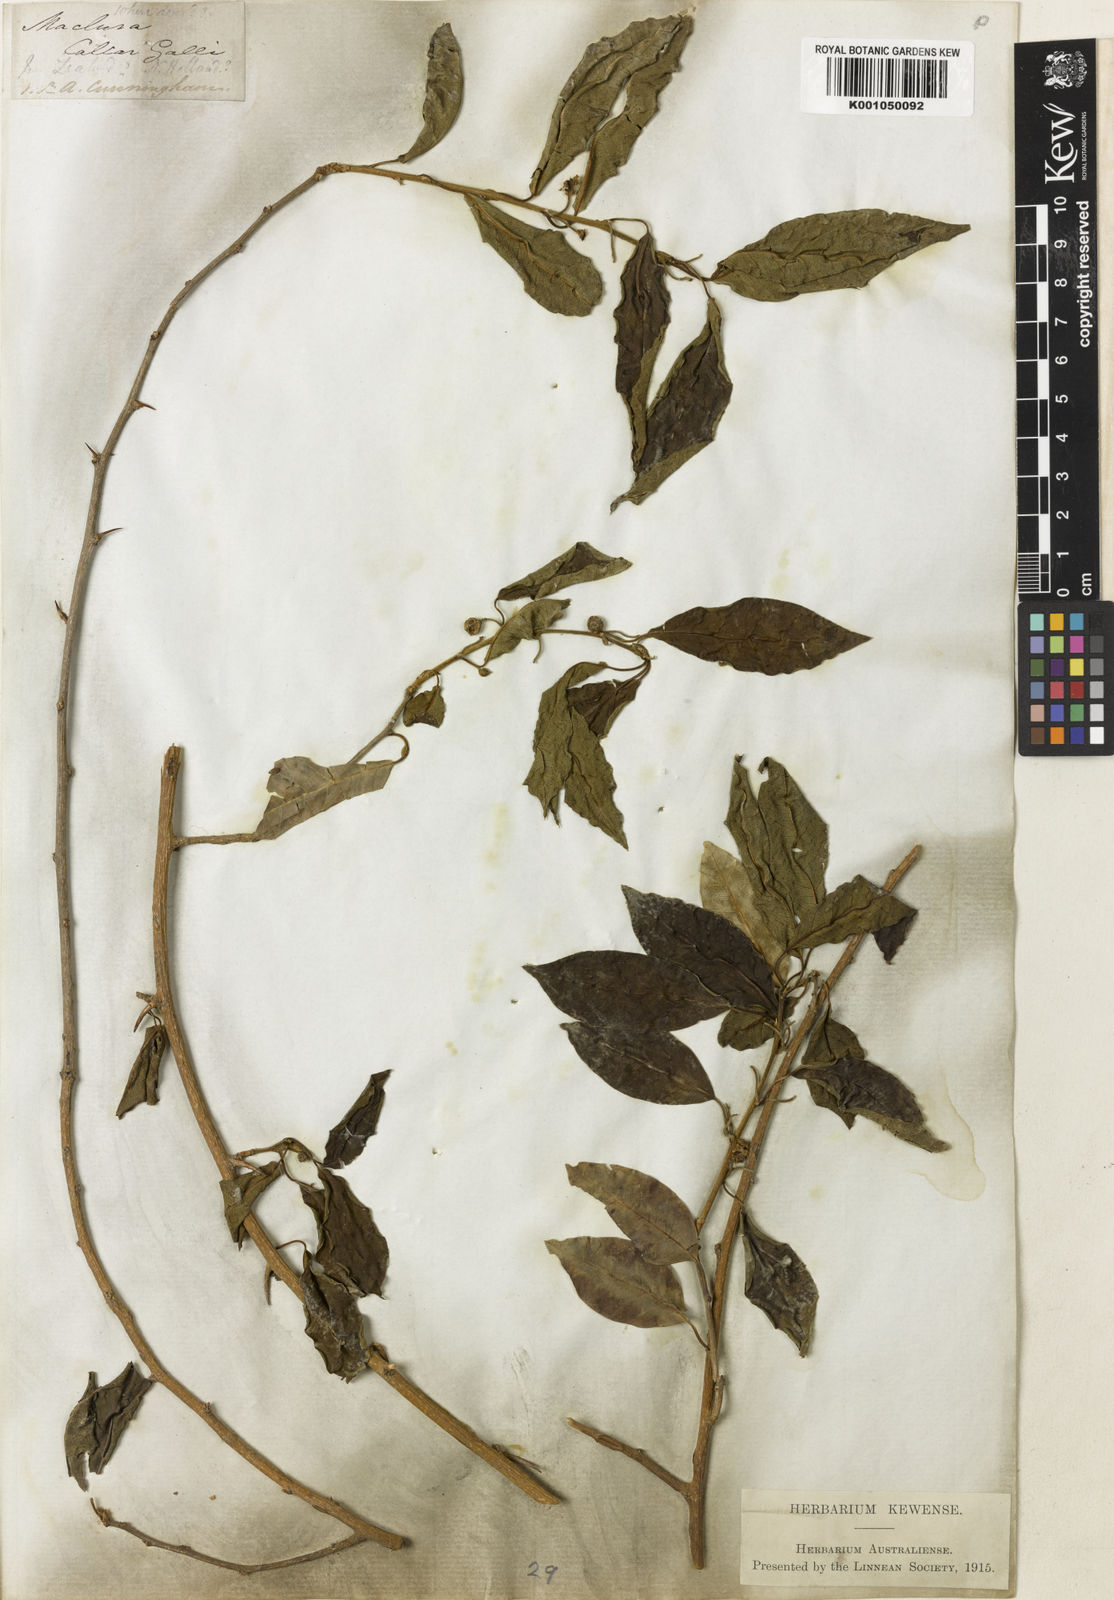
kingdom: Plantae
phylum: Tracheophyta
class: Magnoliopsida
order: Rosales
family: Moraceae
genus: Maclura
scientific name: Maclura cochinchinensis
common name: Cockspurthorn
